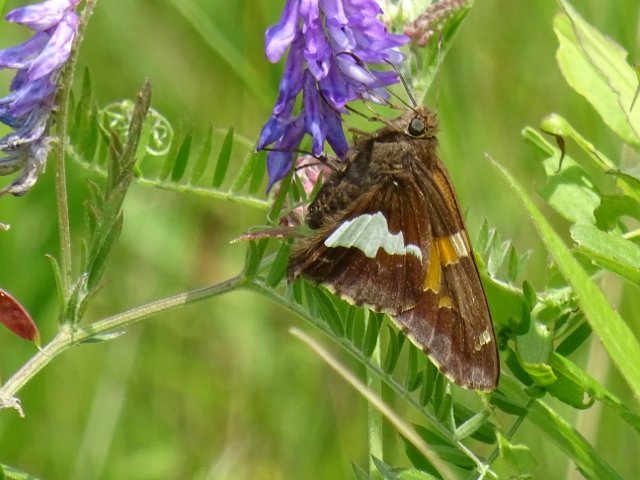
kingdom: Animalia
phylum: Arthropoda
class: Insecta
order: Lepidoptera
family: Hesperiidae
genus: Epargyreus
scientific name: Epargyreus clarus
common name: Silver-spotted Skipper
